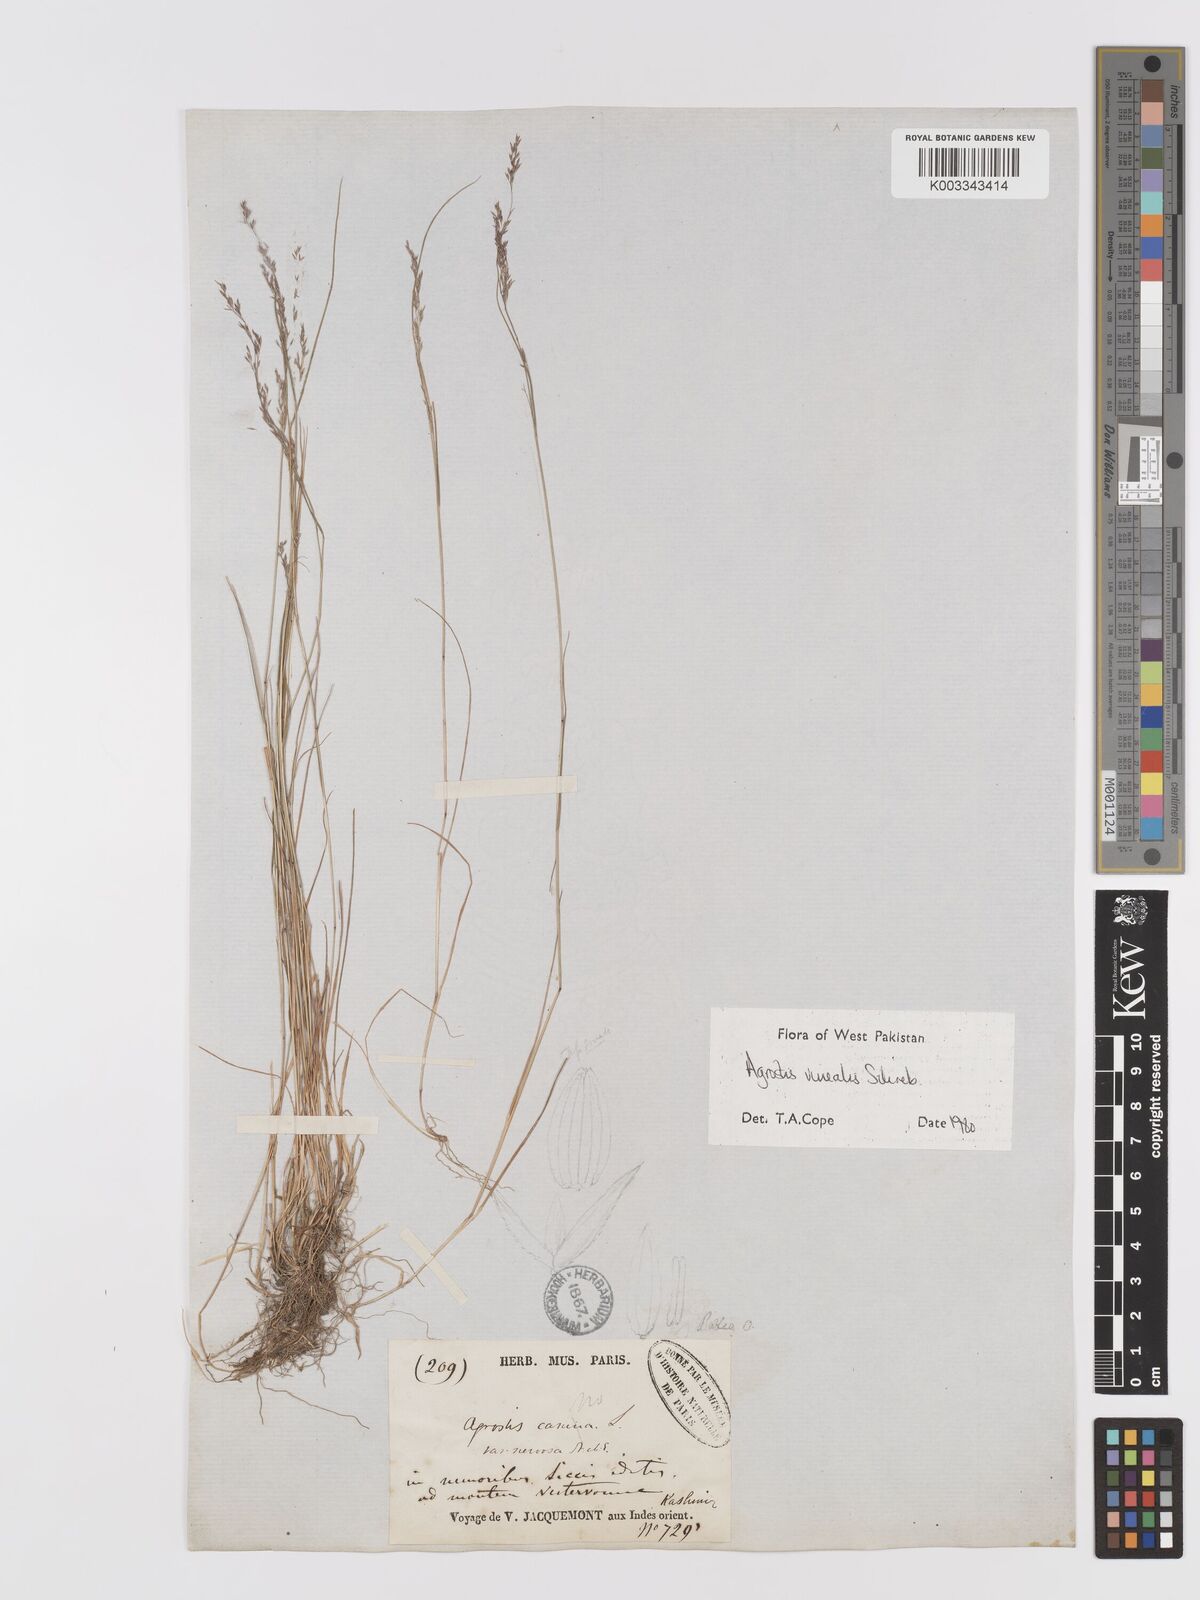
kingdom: Plantae
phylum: Tracheophyta
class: Liliopsida
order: Poales
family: Poaceae
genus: Agrostis
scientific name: Agrostis vinealis
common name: Brown bent
